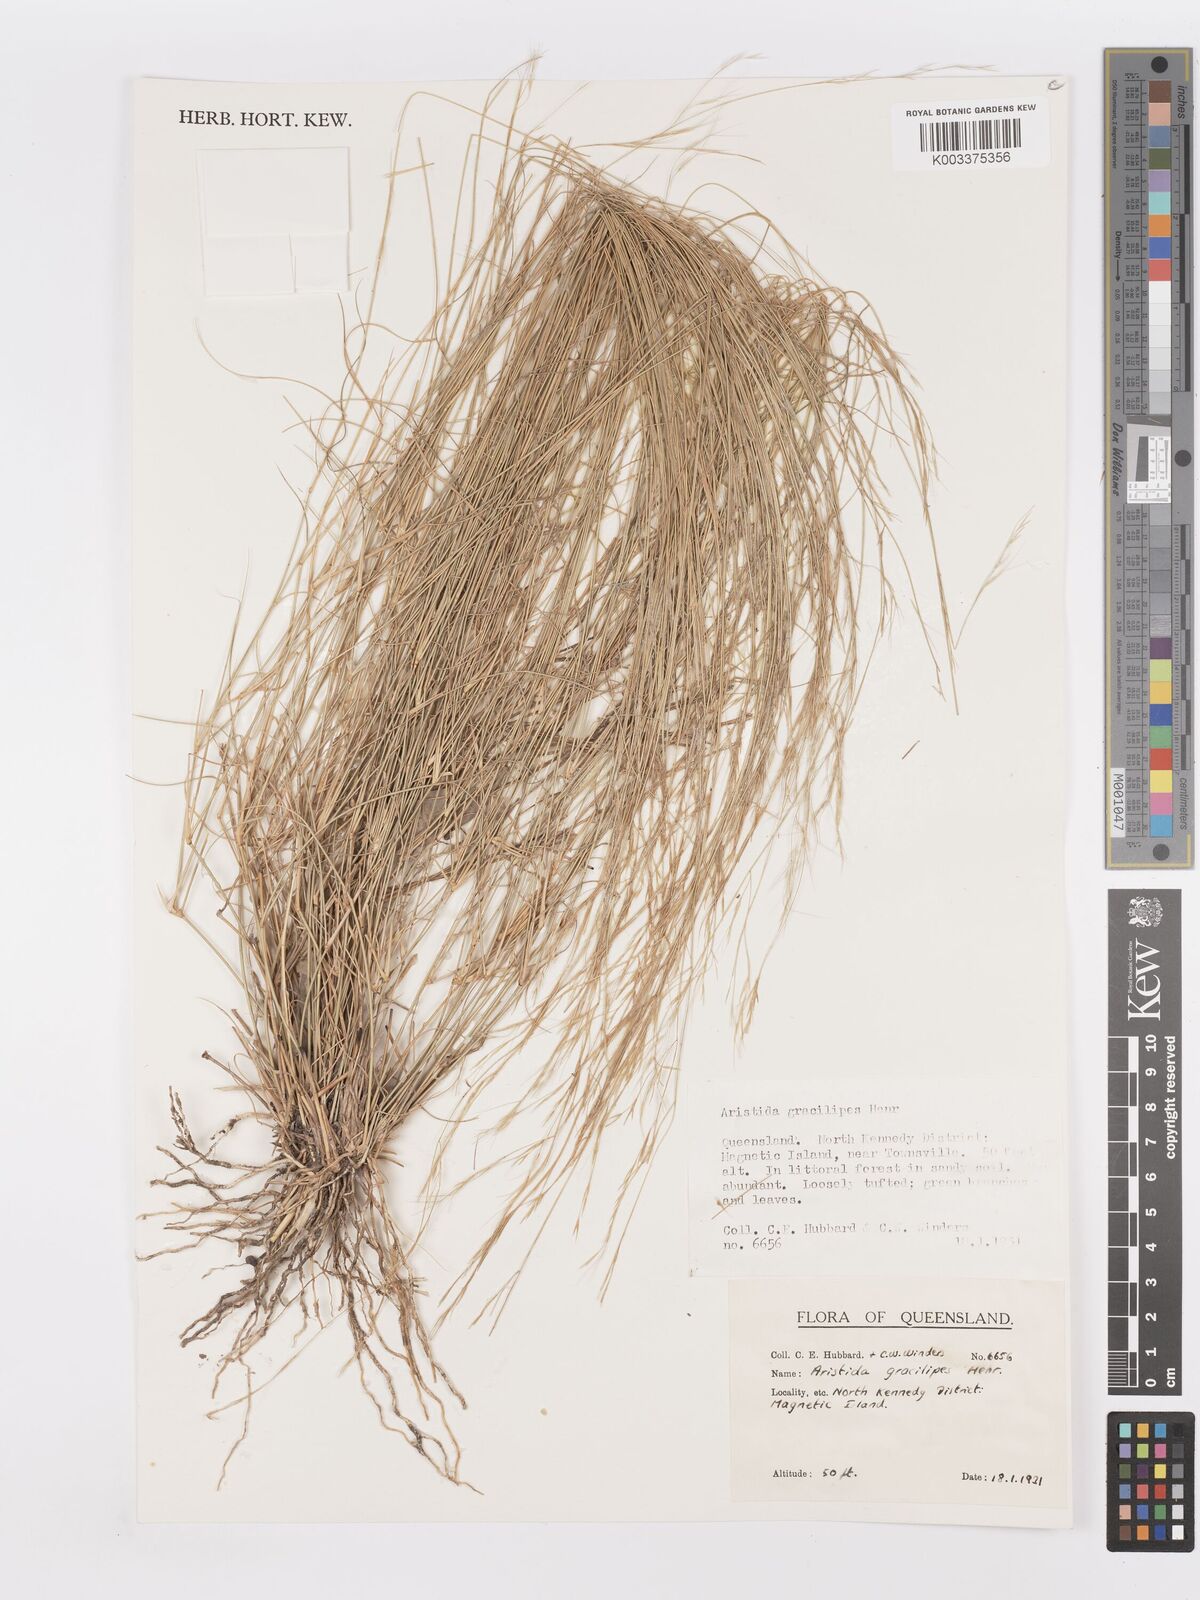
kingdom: Plantae
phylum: Tracheophyta
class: Liliopsida
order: Poales
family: Poaceae
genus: Aristida
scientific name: Aristida gracilipes
